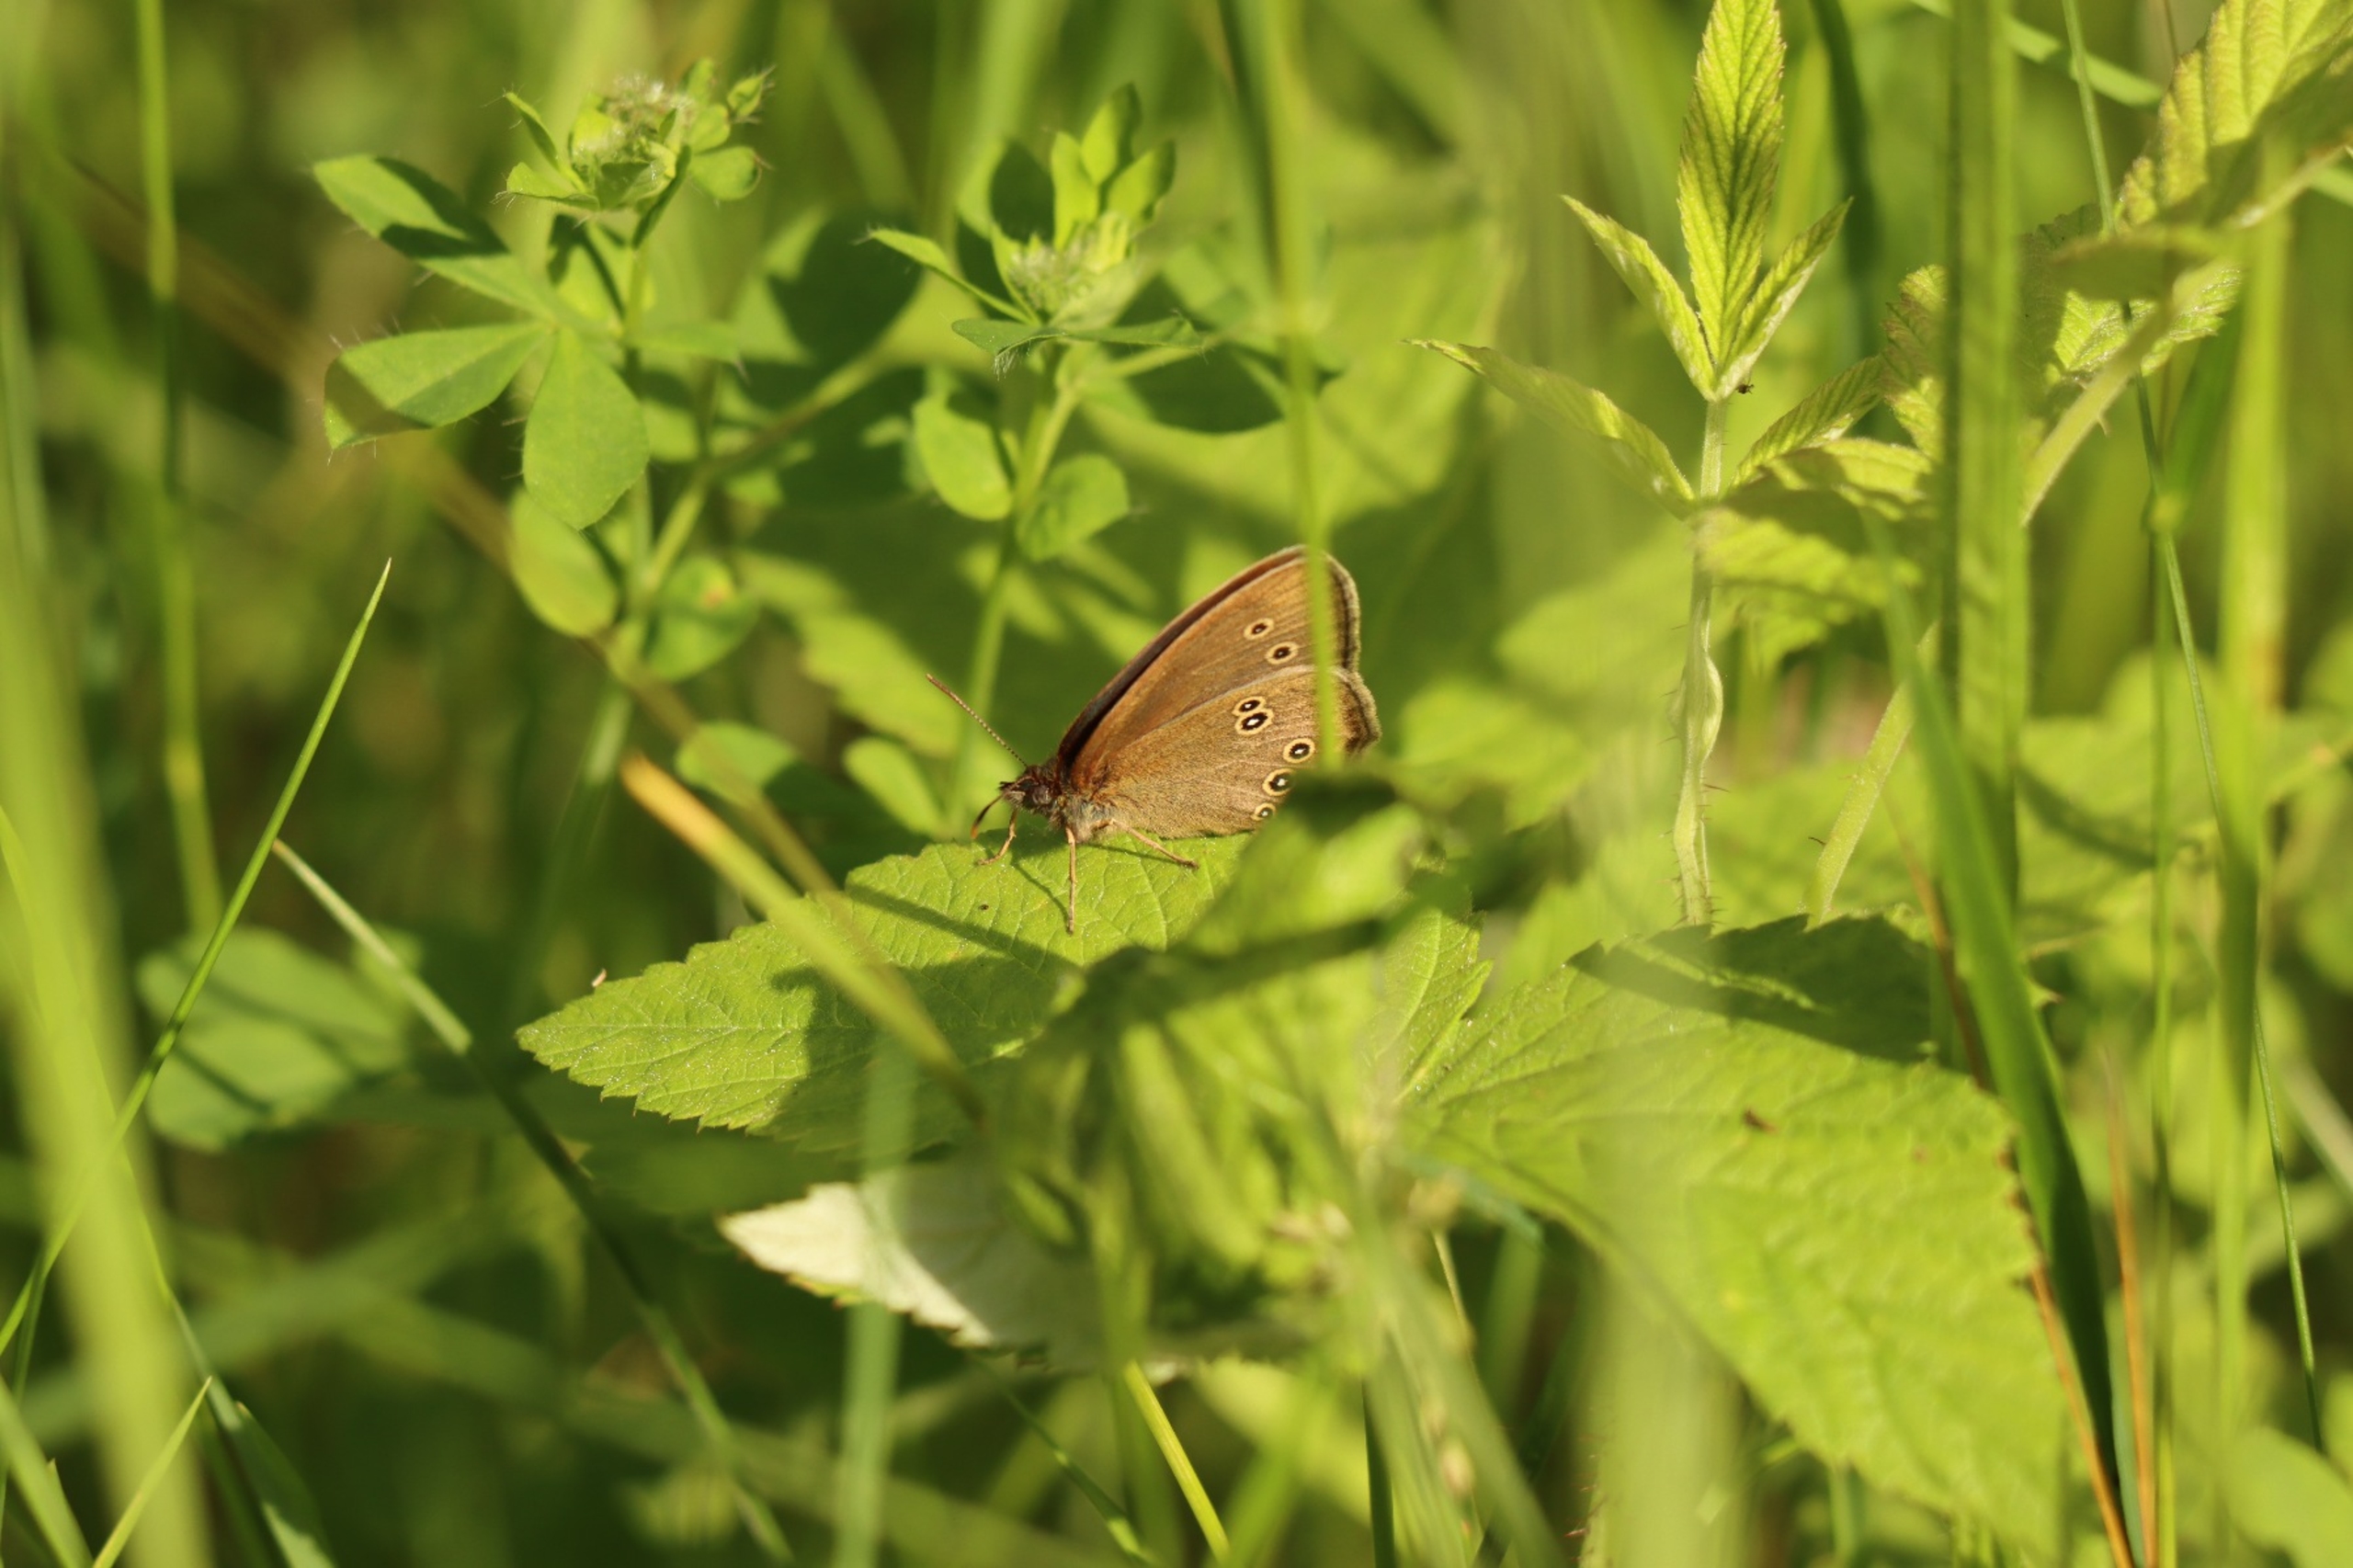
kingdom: Animalia
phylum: Arthropoda
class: Insecta
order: Lepidoptera
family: Nymphalidae
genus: Aphantopus
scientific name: Aphantopus hyperantus
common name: Engrandøje
